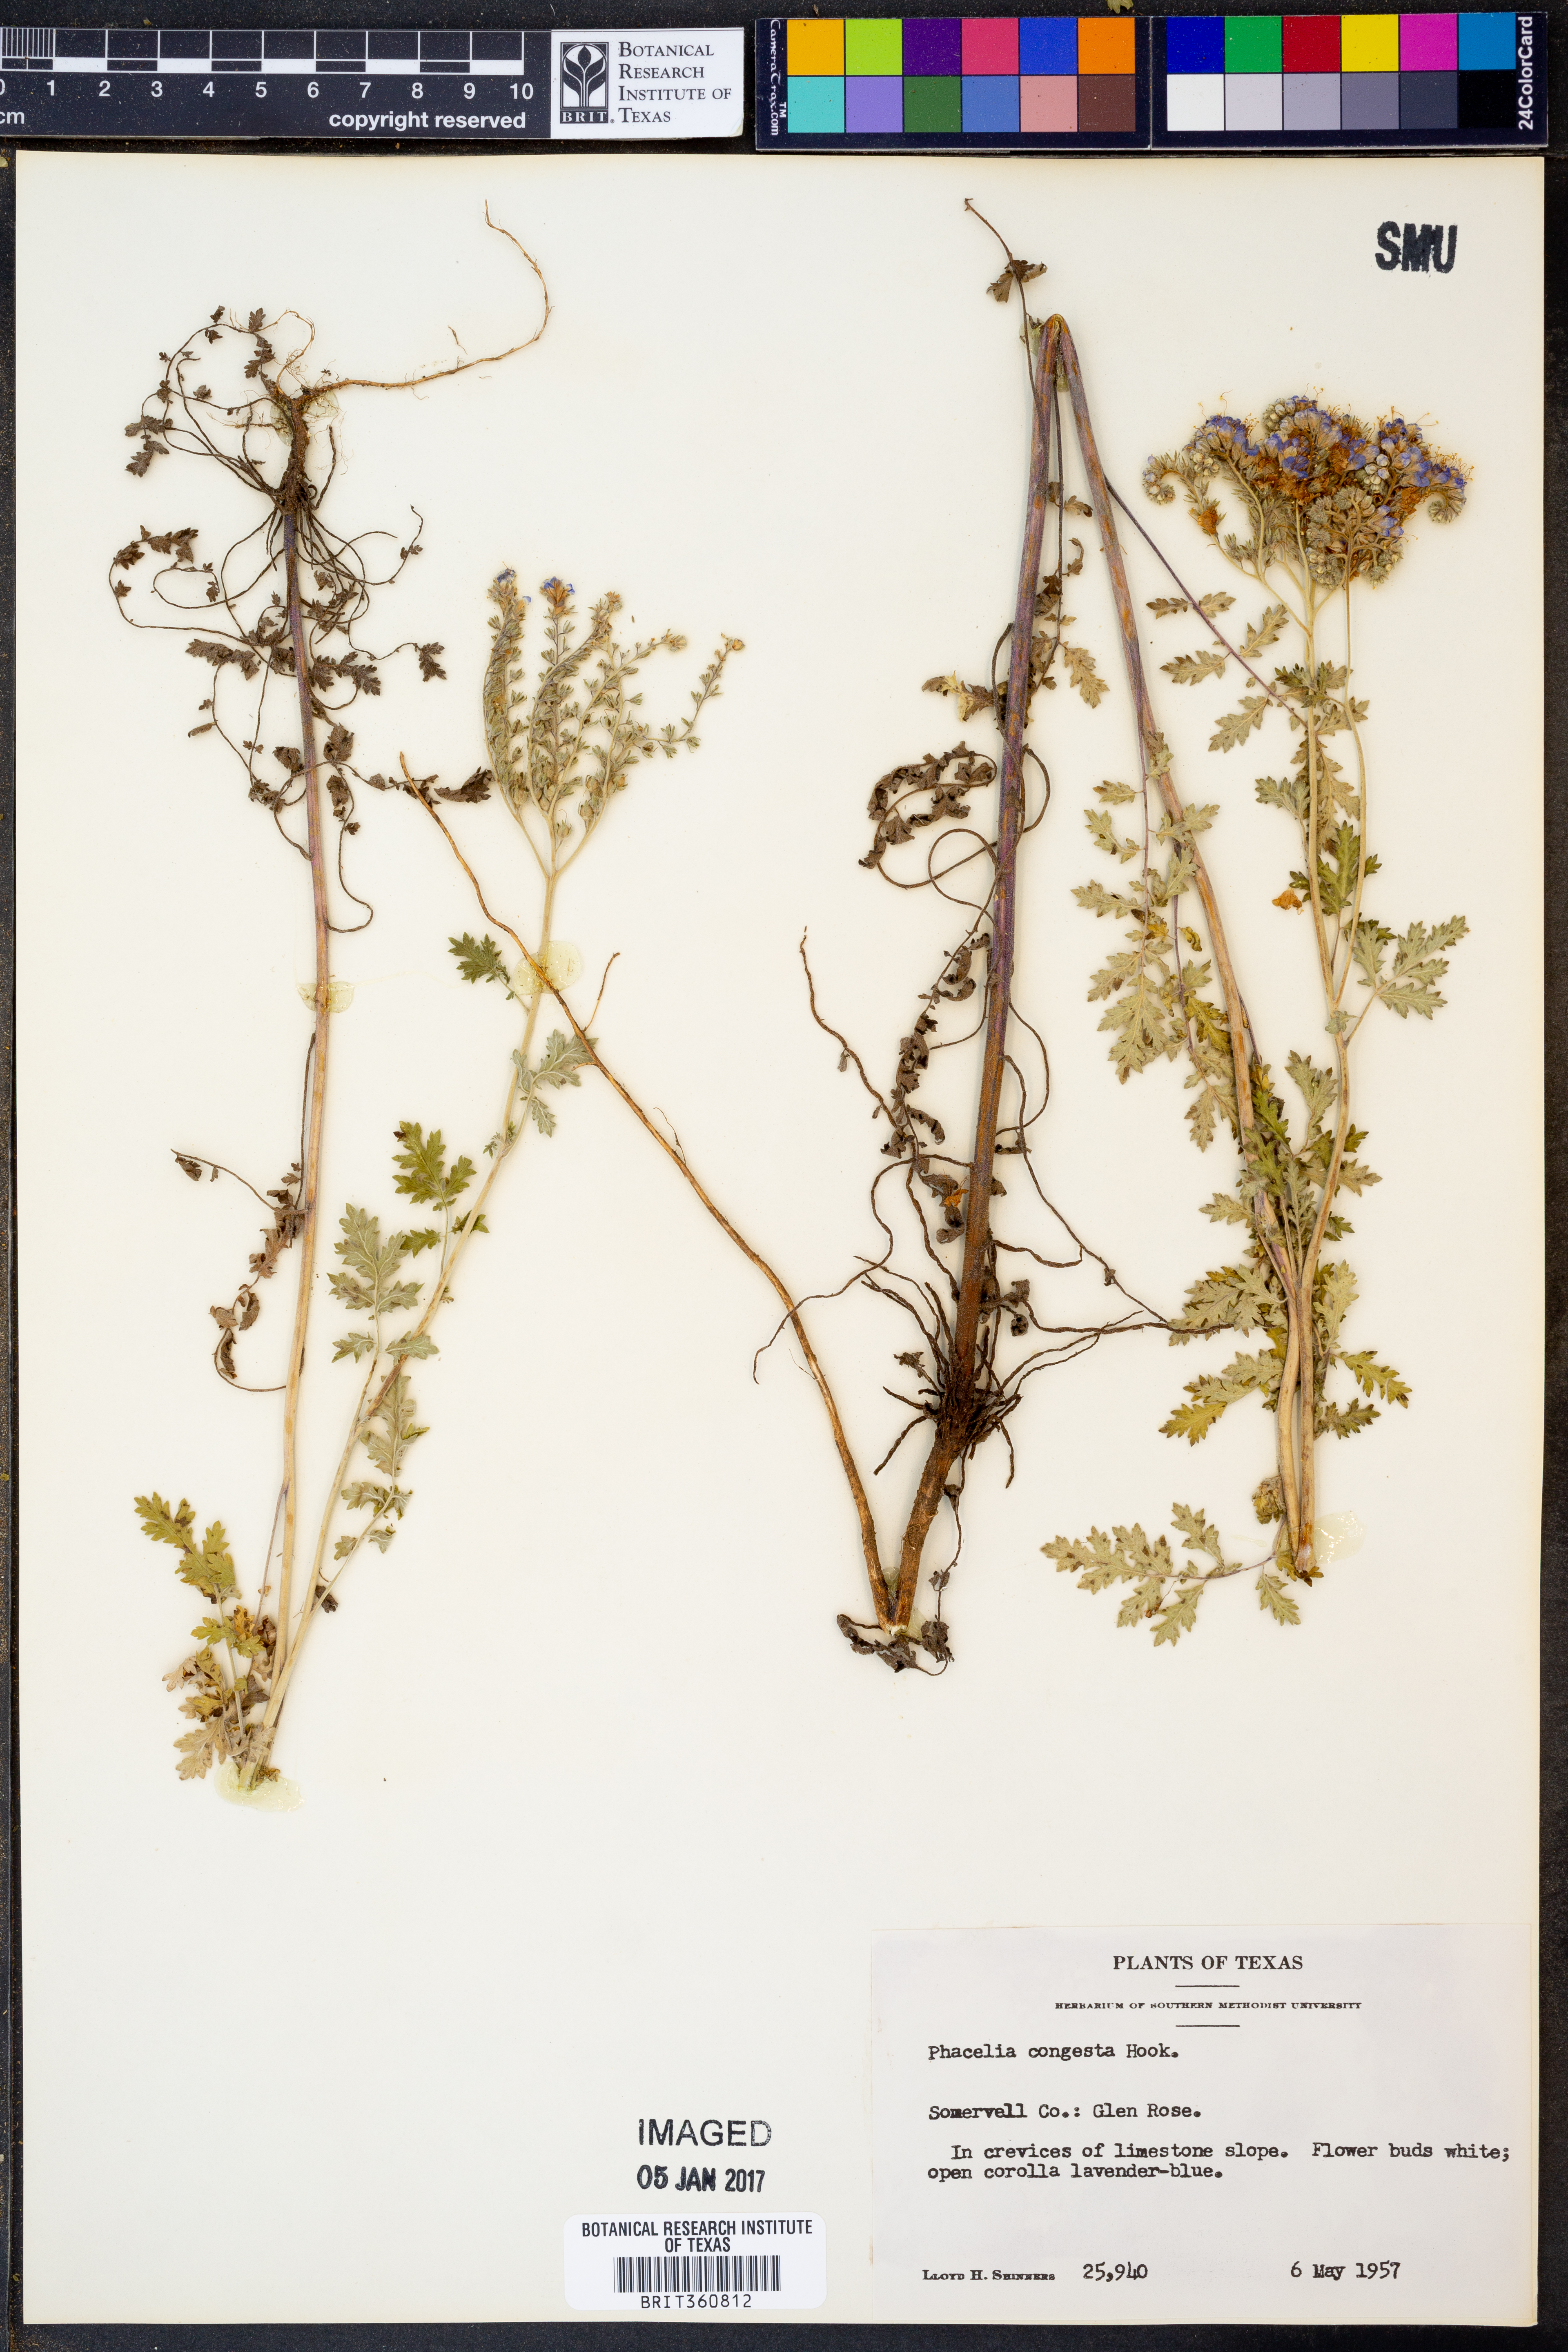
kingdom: Plantae
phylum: Tracheophyta
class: Magnoliopsida
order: Boraginales
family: Hydrophyllaceae
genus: Phacelia
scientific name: Phacelia congesta
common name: Blue curls
